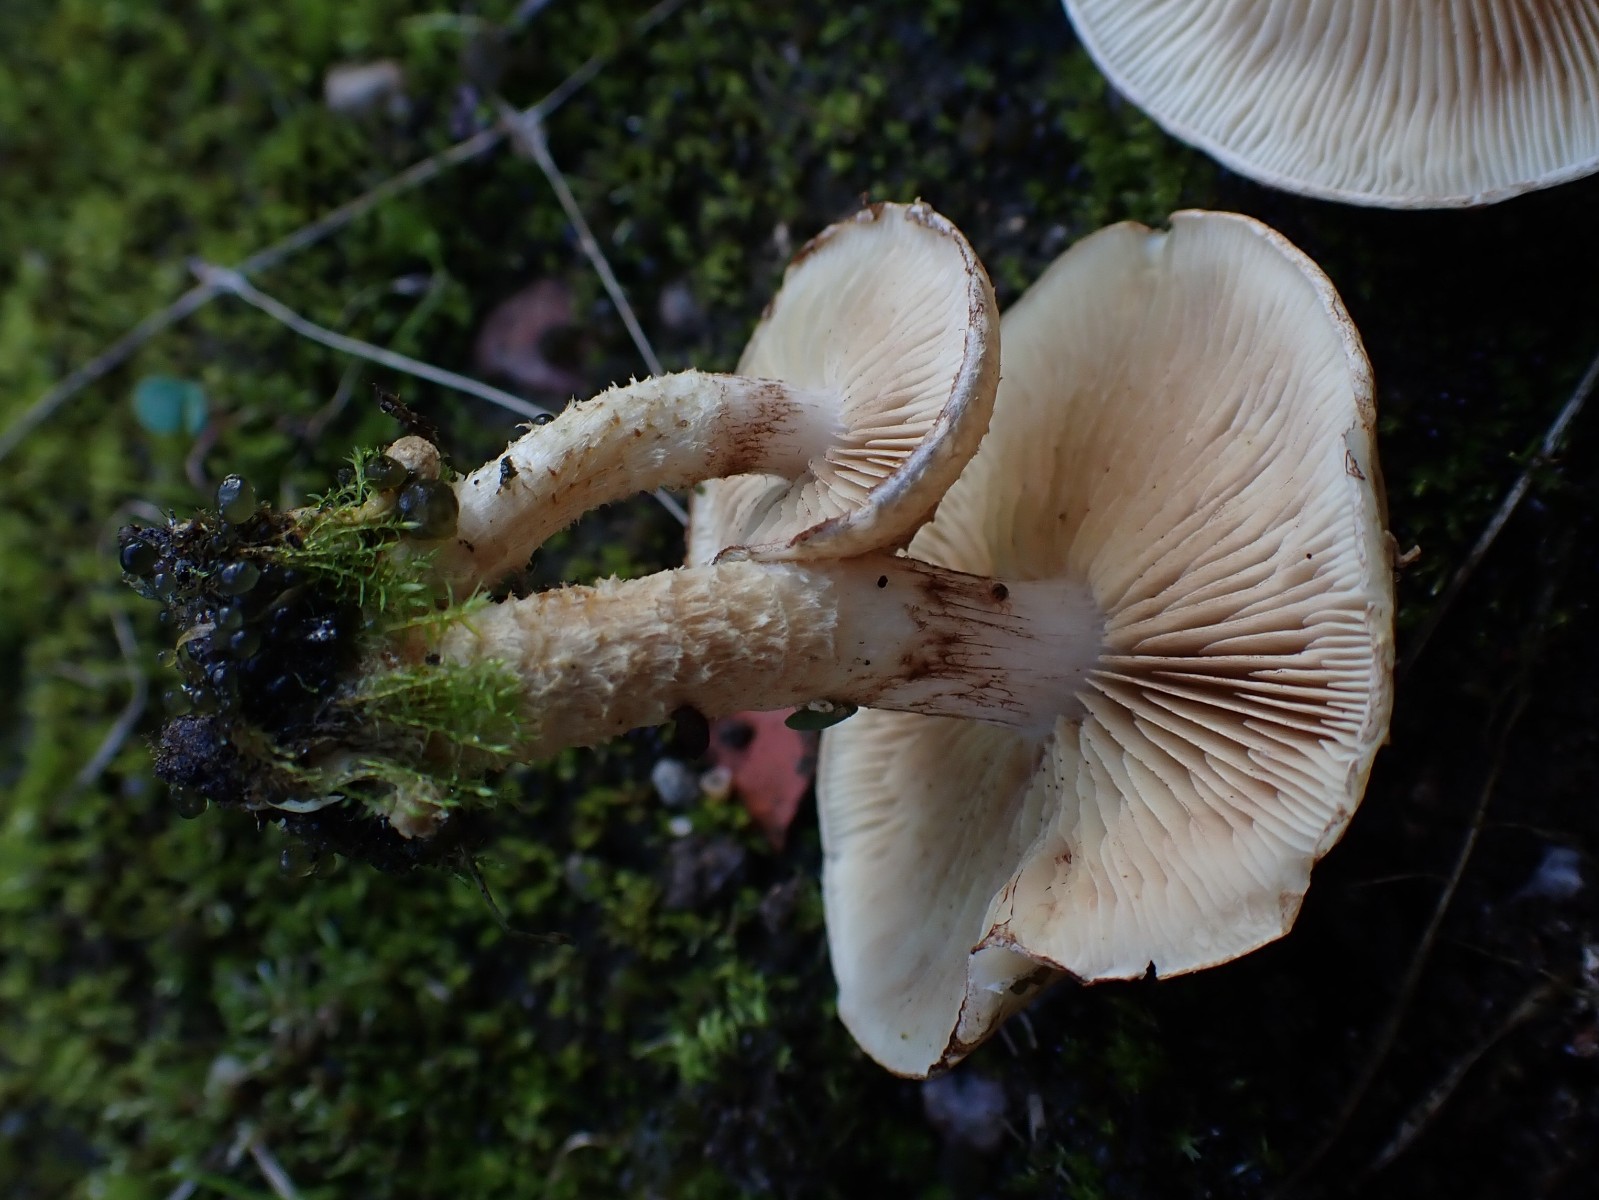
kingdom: Fungi
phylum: Basidiomycota
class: Agaricomycetes
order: Agaricales
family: Strophariaceae
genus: Pholiota
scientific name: Pholiota gummosa
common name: grøngul skælhat
